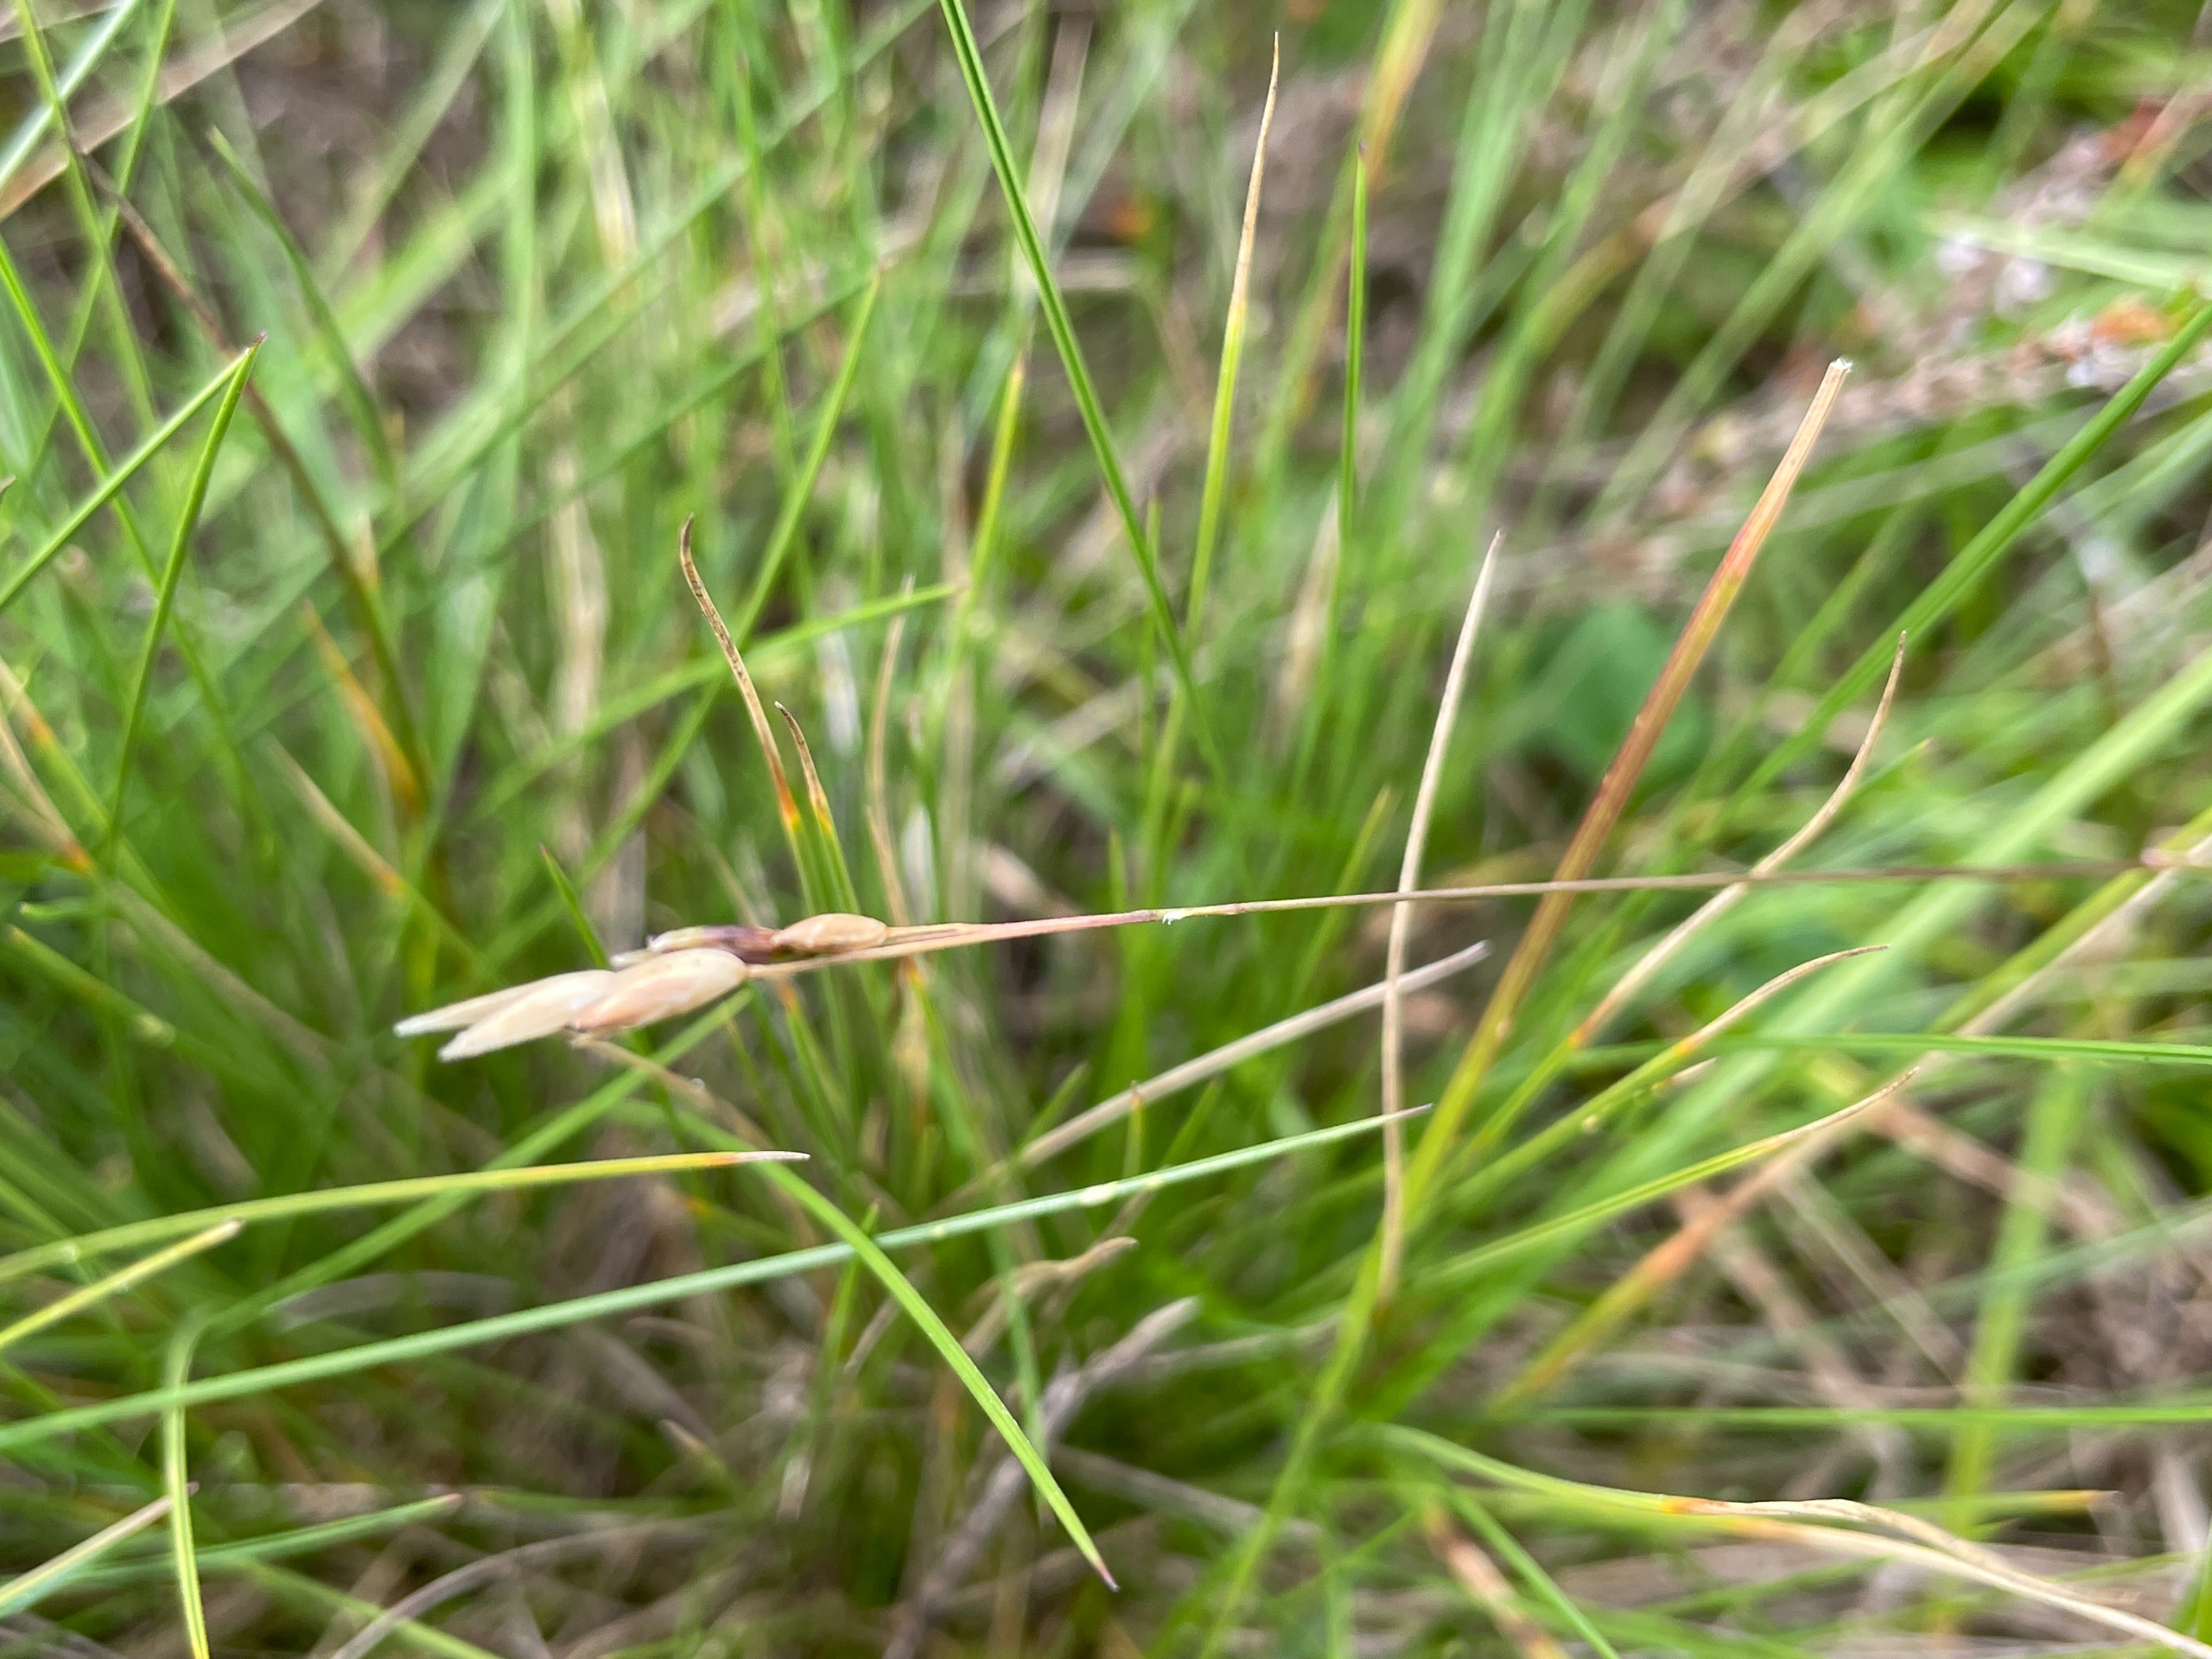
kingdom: Plantae
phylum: Tracheophyta
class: Liliopsida
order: Poales
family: Poaceae
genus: Danthonia
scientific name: Danthonia decumbens
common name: Tandbælg
